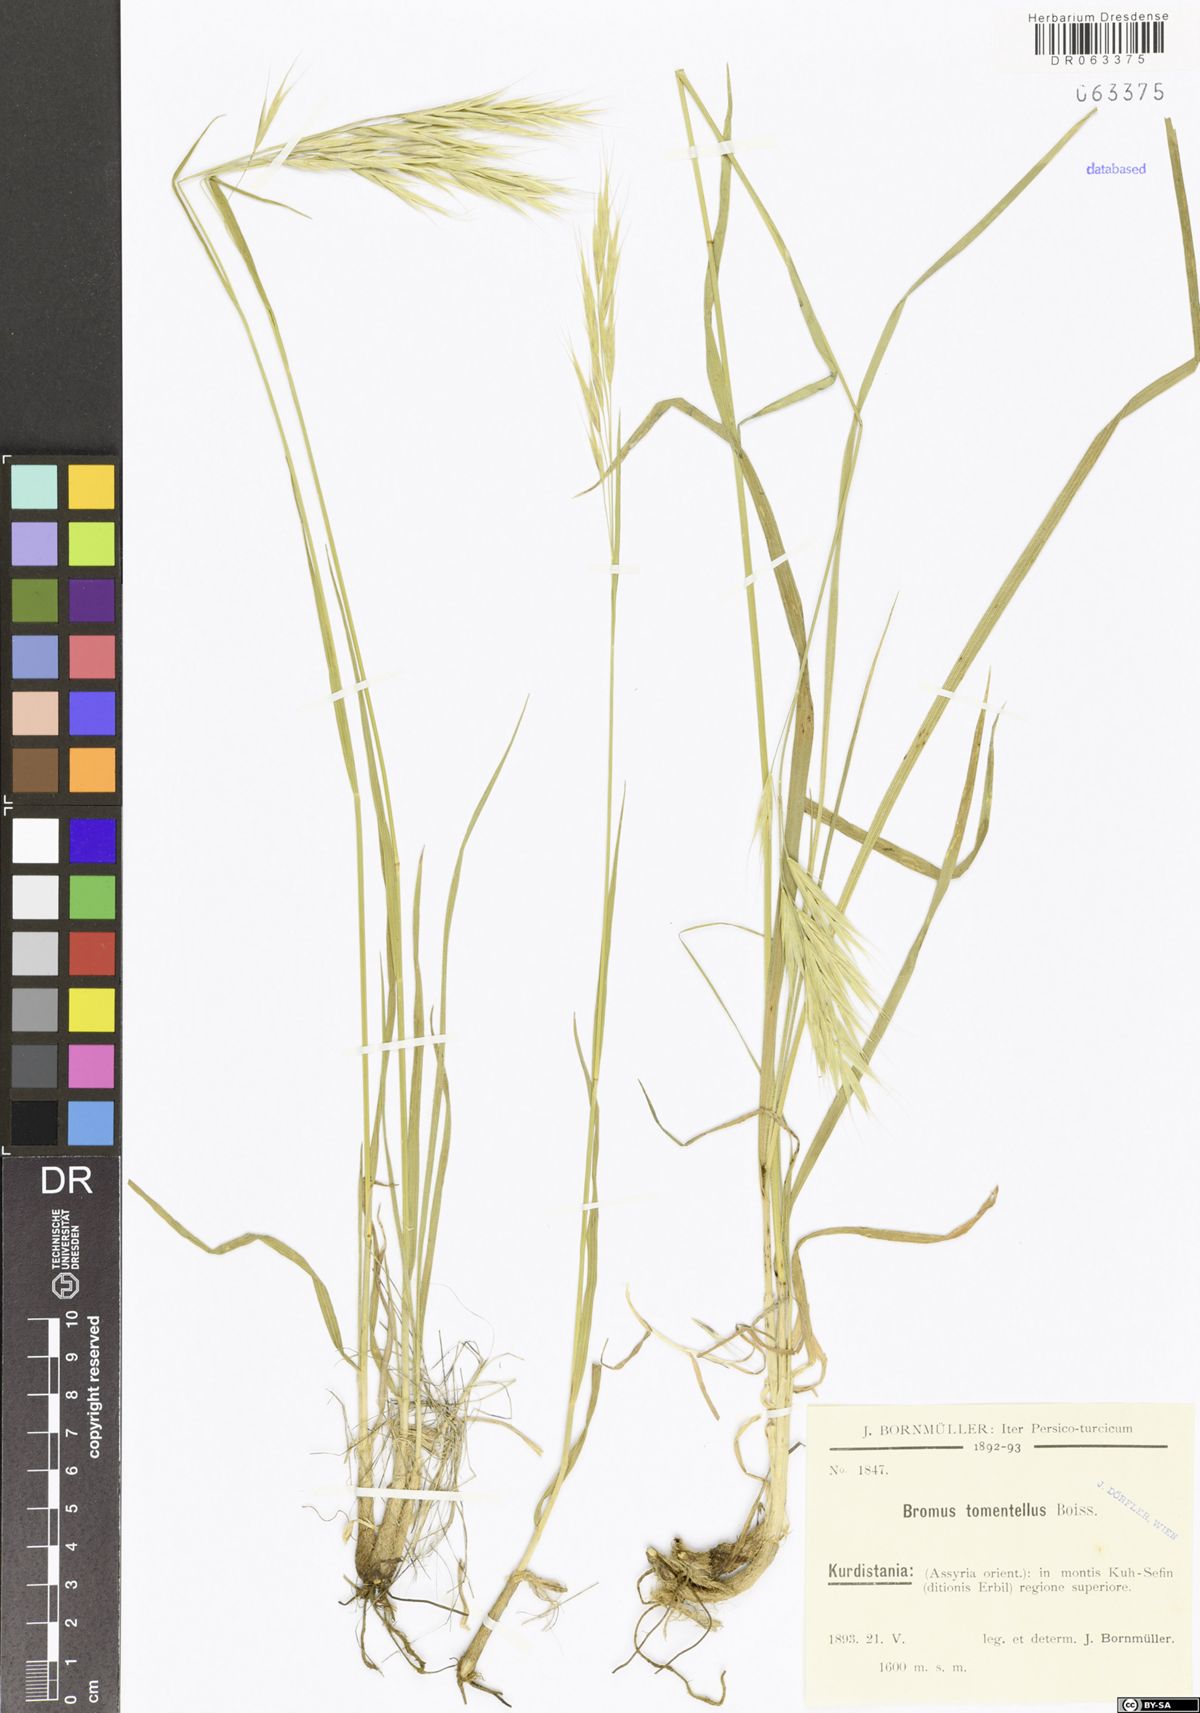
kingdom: Plantae
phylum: Tracheophyta
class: Liliopsida
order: Poales
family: Poaceae
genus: Bromus
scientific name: Bromus tomentellus
